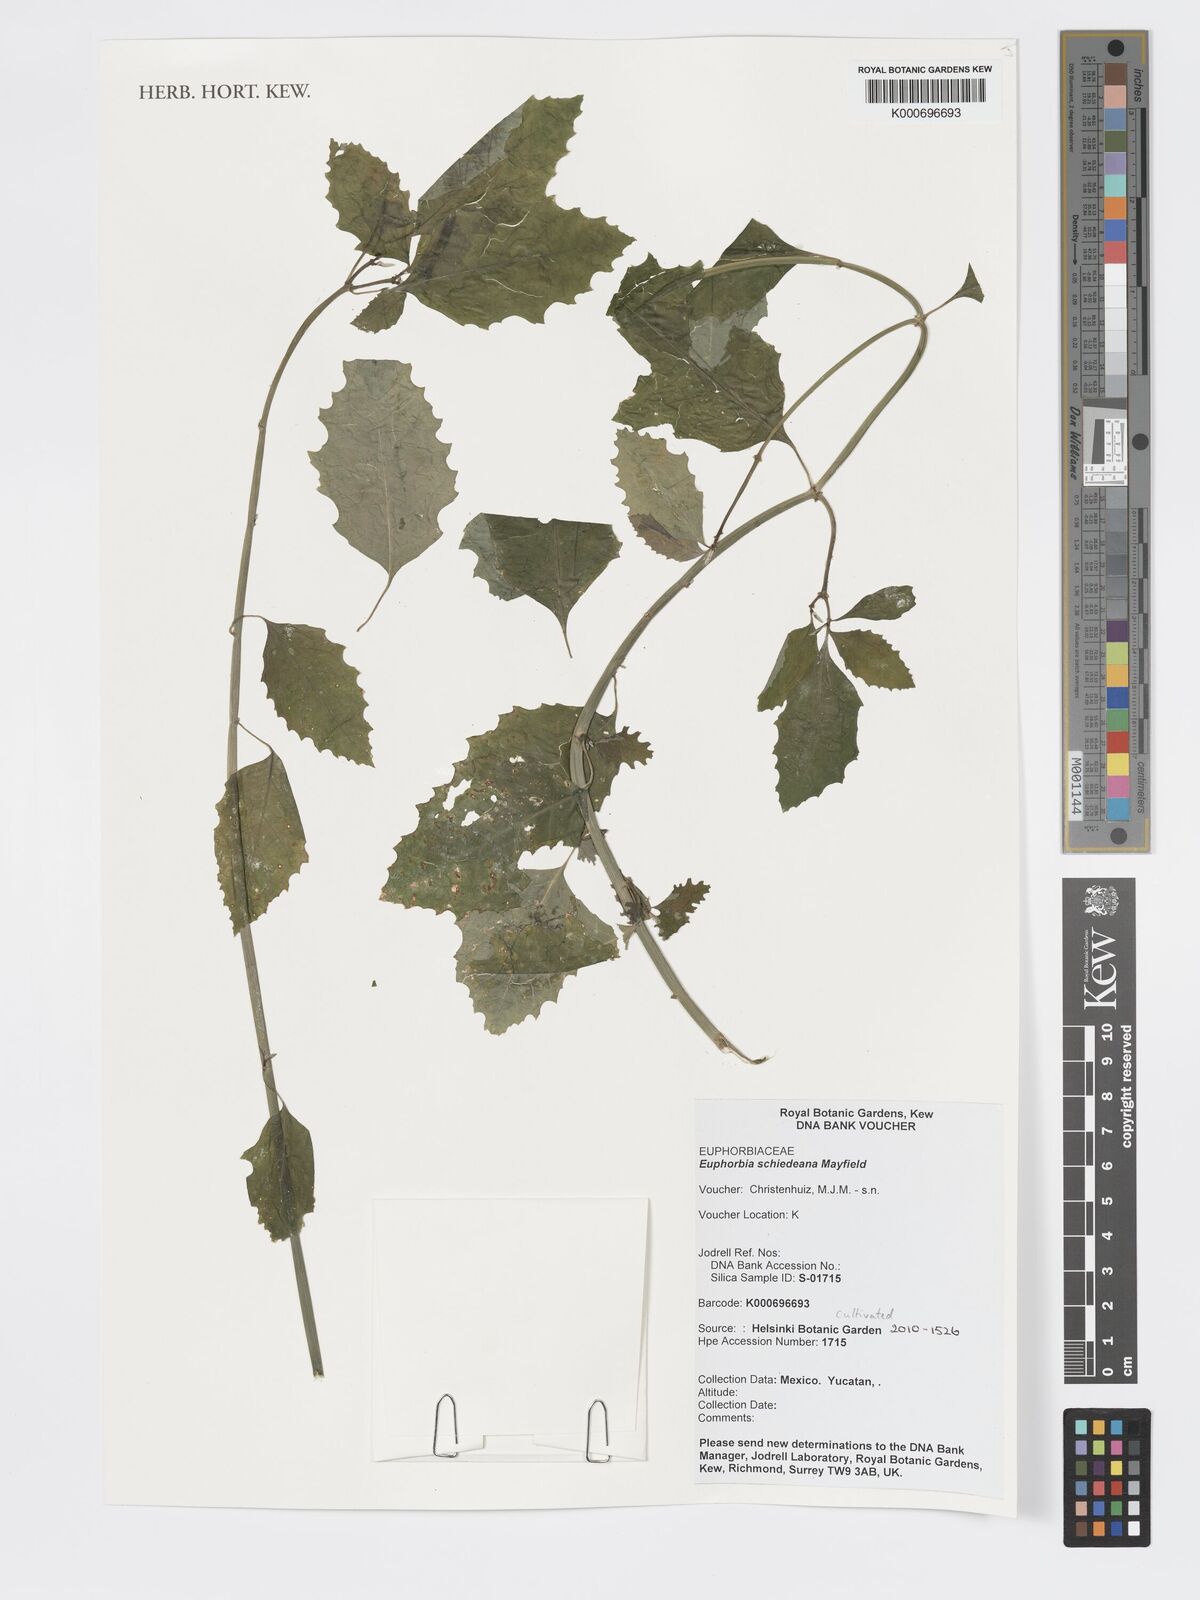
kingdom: Plantae
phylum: Tracheophyta
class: Magnoliopsida
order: Malpighiales
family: Euphorbiaceae
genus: Euphorbia
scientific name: Euphorbia
